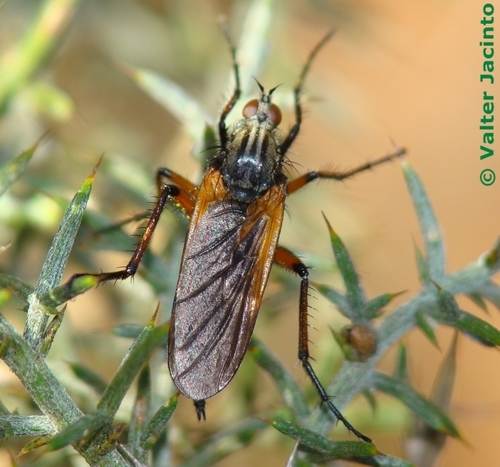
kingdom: Animalia
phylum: Arthropoda
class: Insecta
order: Diptera
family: Empididae
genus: Empis
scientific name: Empis tessellata
